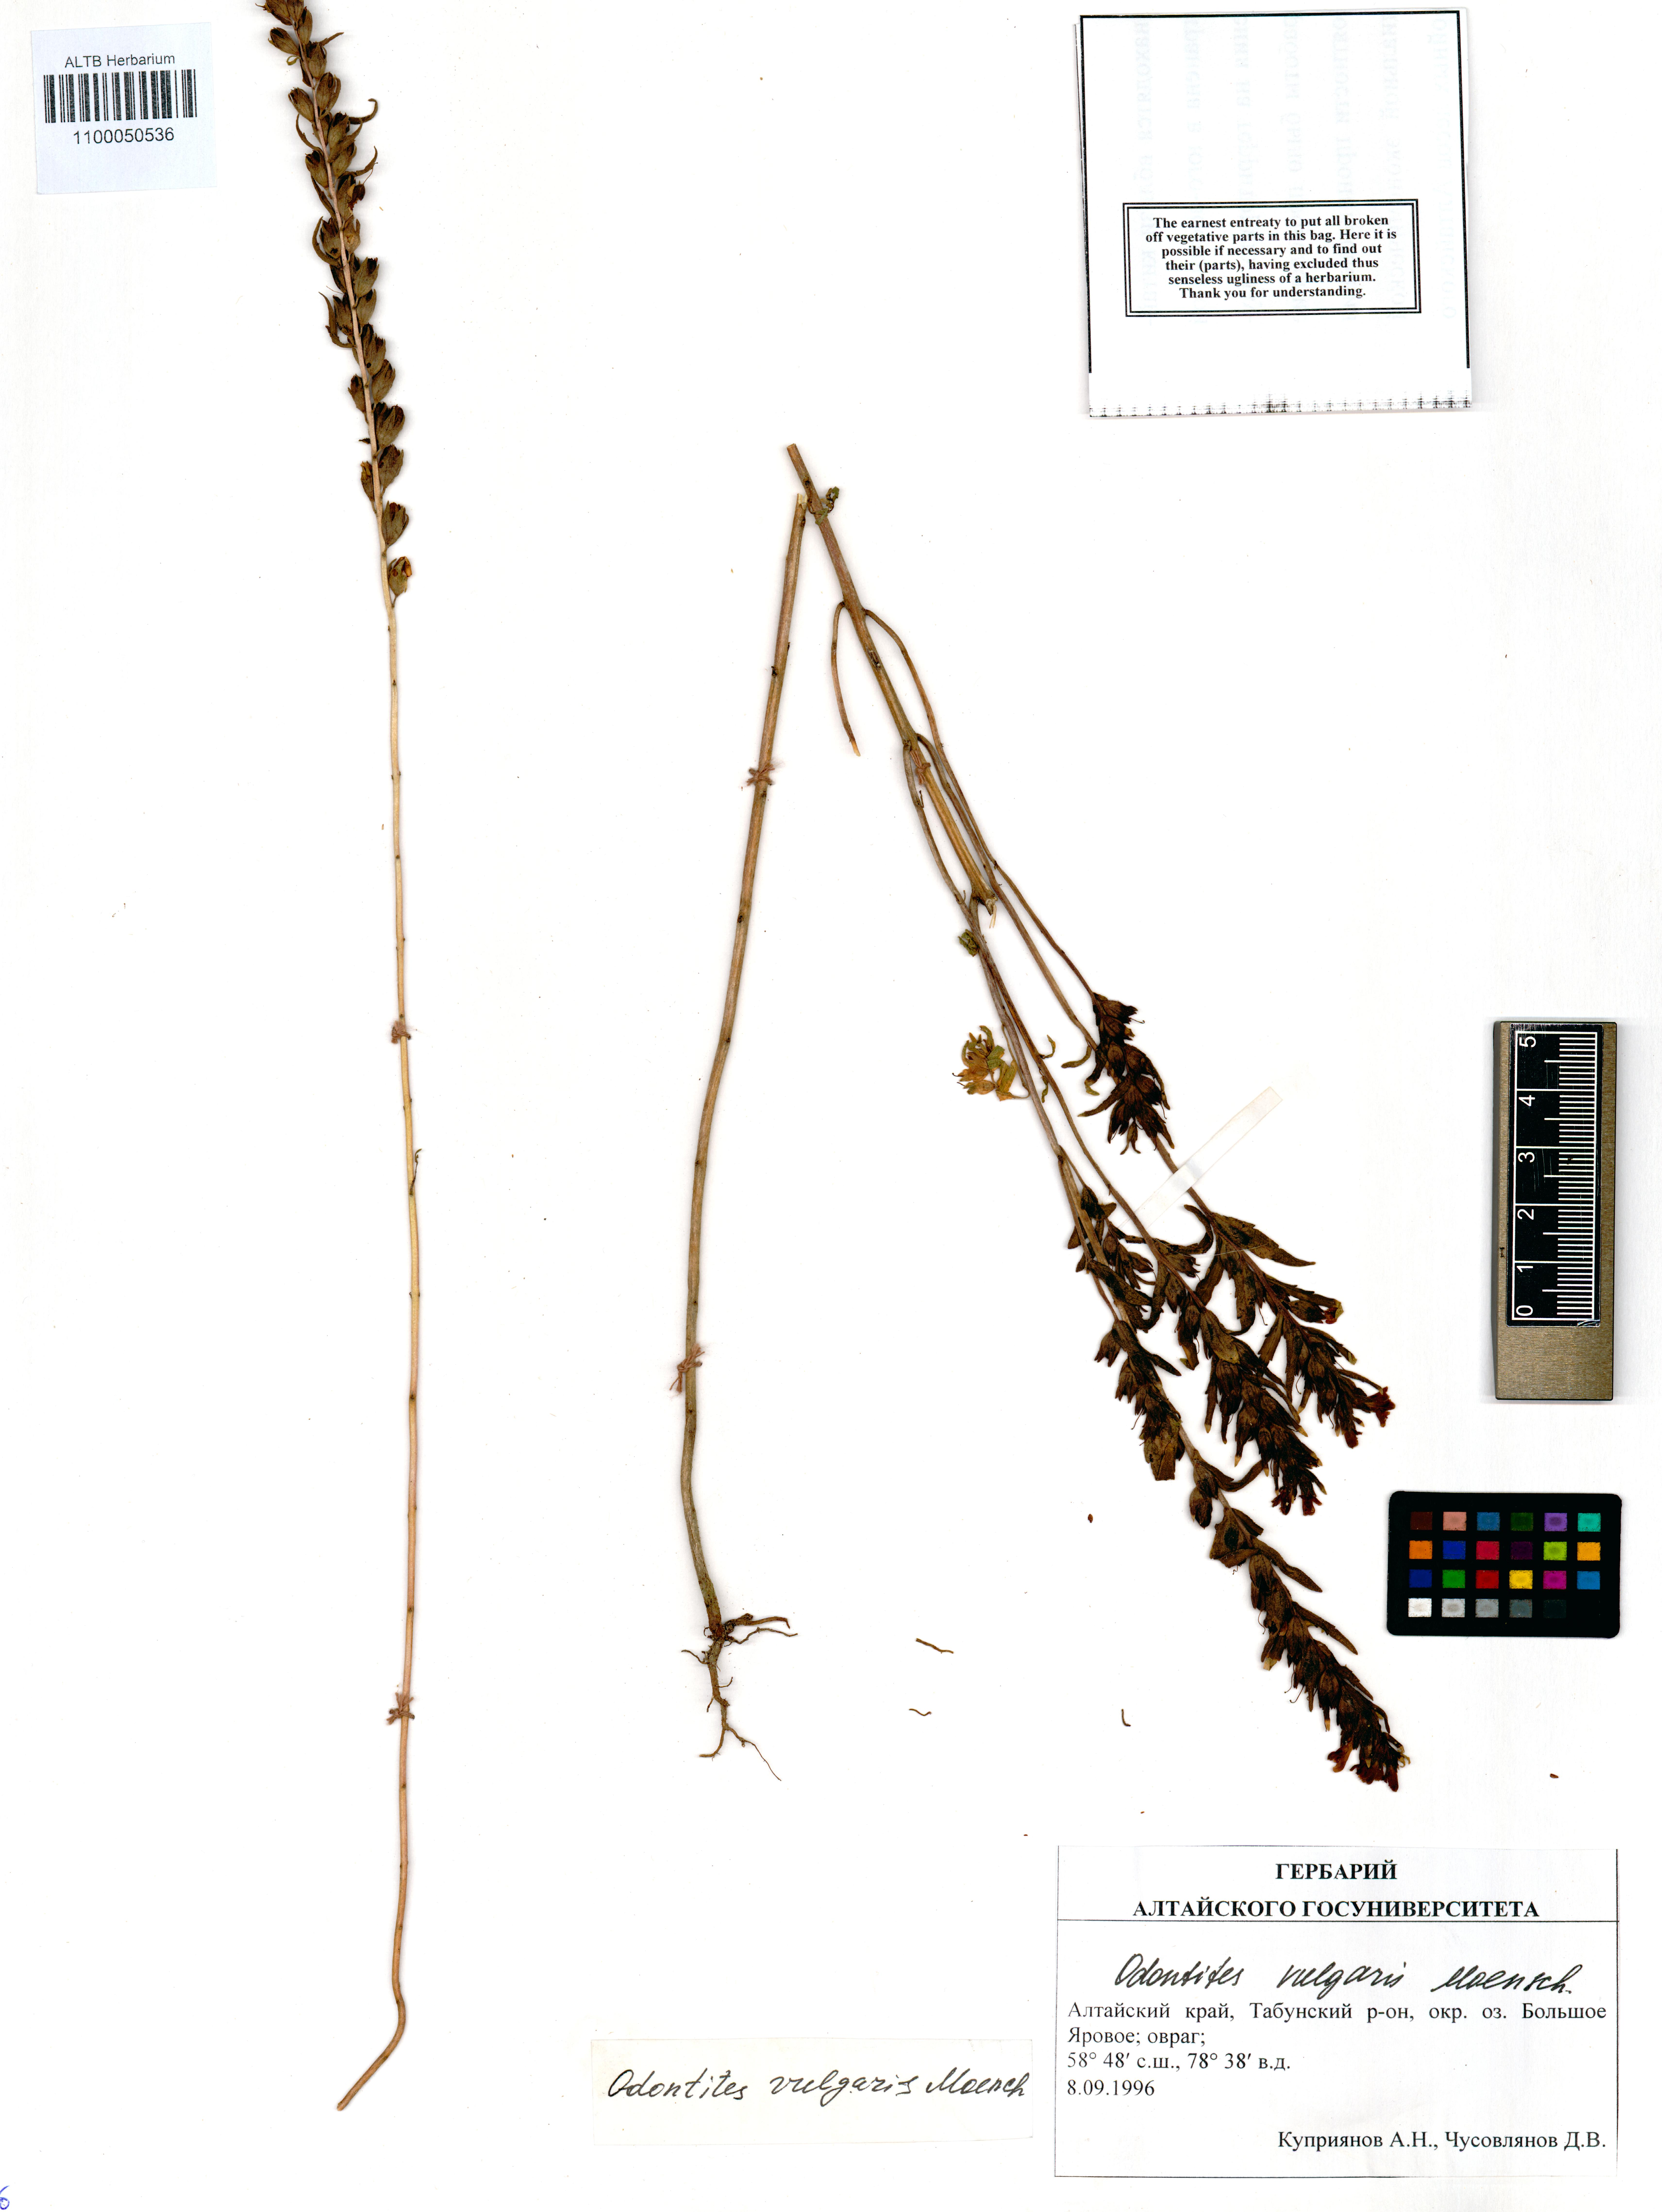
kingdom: Plantae
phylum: Tracheophyta
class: Magnoliopsida
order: Lamiales
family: Orobanchaceae
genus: Odontites
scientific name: Odontites vulgaris
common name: Broomrape
